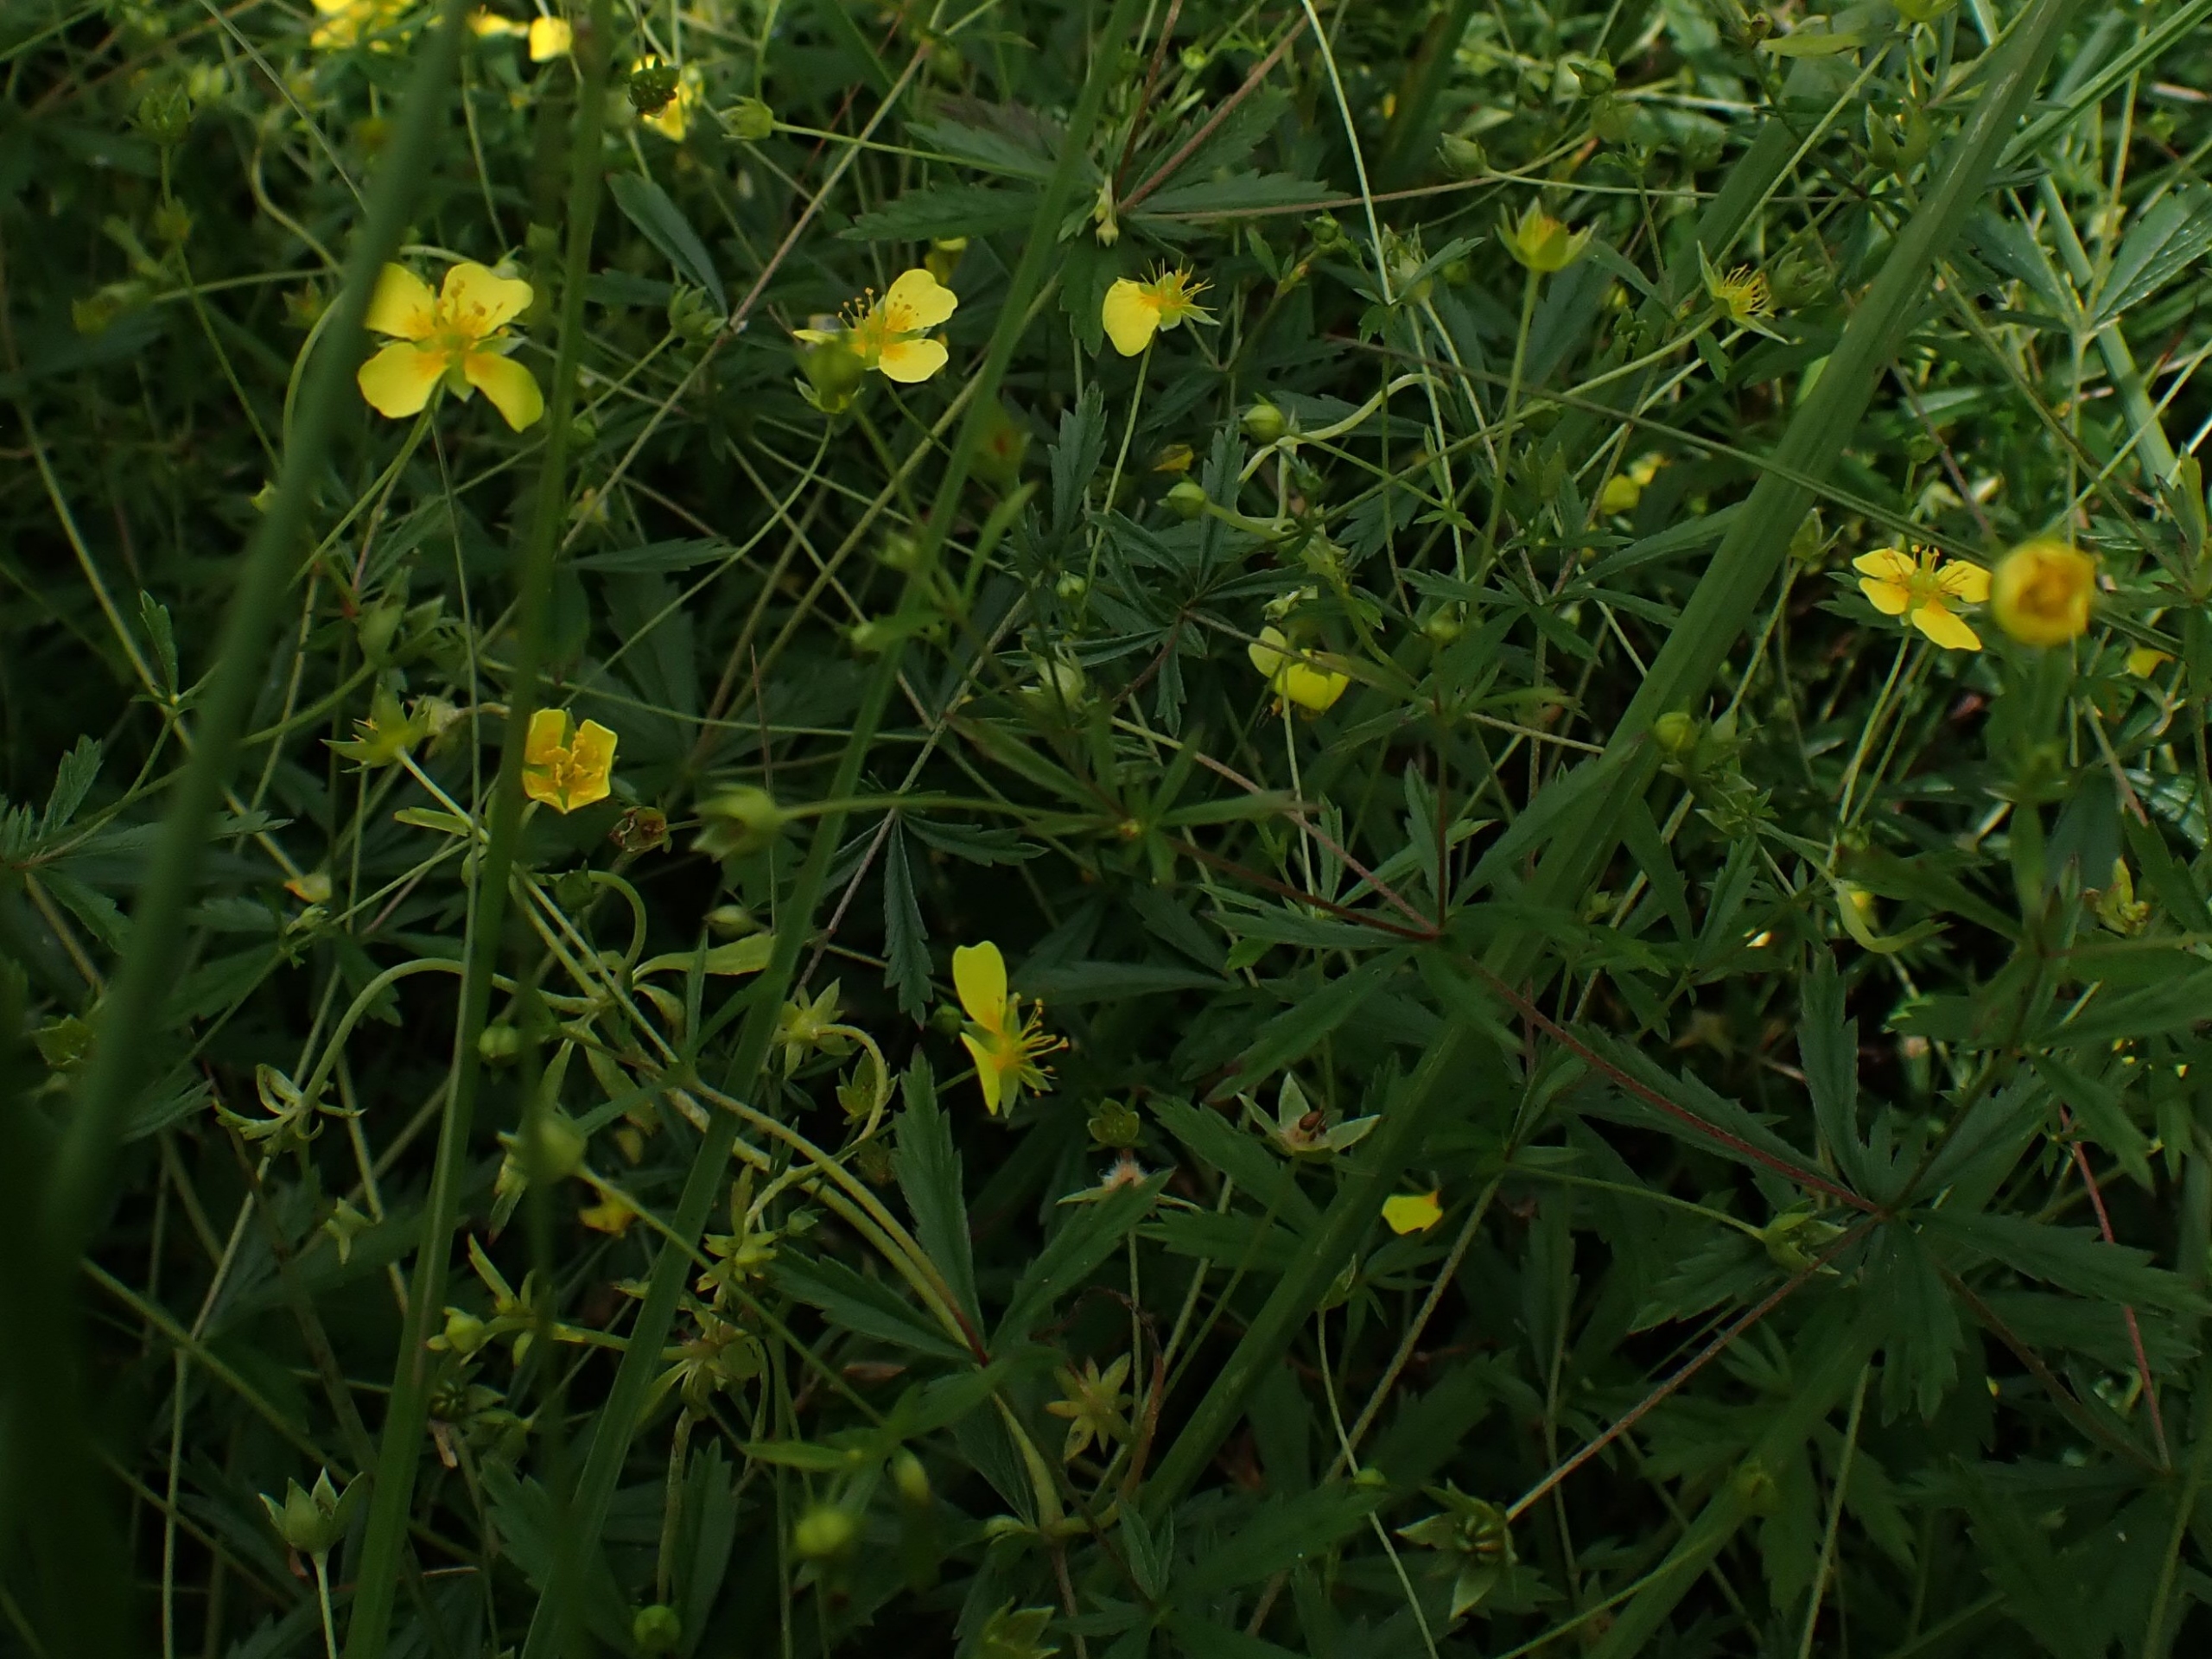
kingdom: Plantae
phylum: Tracheophyta
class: Magnoliopsida
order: Rosales
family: Rosaceae
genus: Potentilla
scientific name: Potentilla erecta
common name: Tormentil
